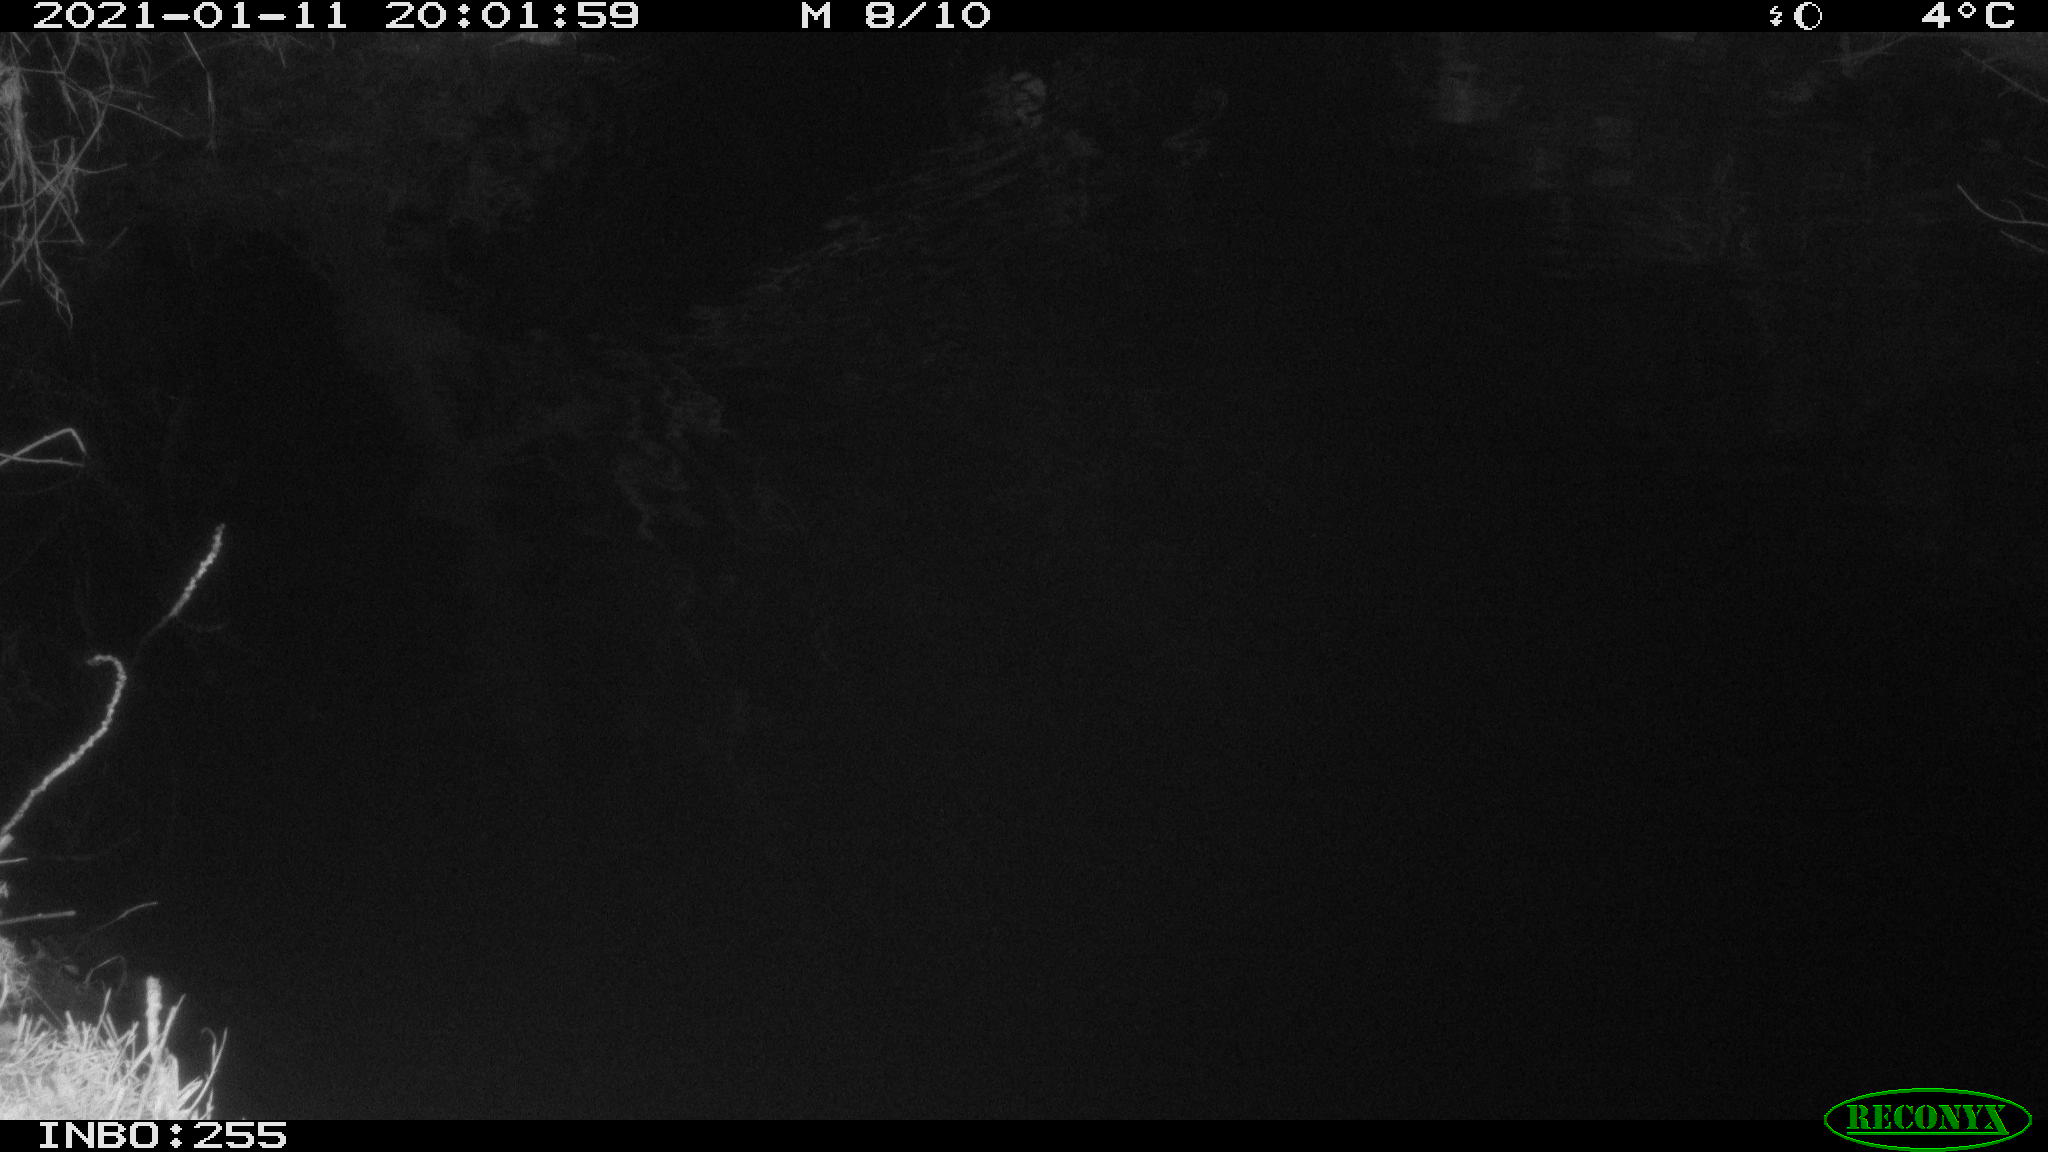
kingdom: Animalia
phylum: Chordata
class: Aves
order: Anseriformes
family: Anatidae
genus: Anas
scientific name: Anas platyrhynchos
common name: Mallard
